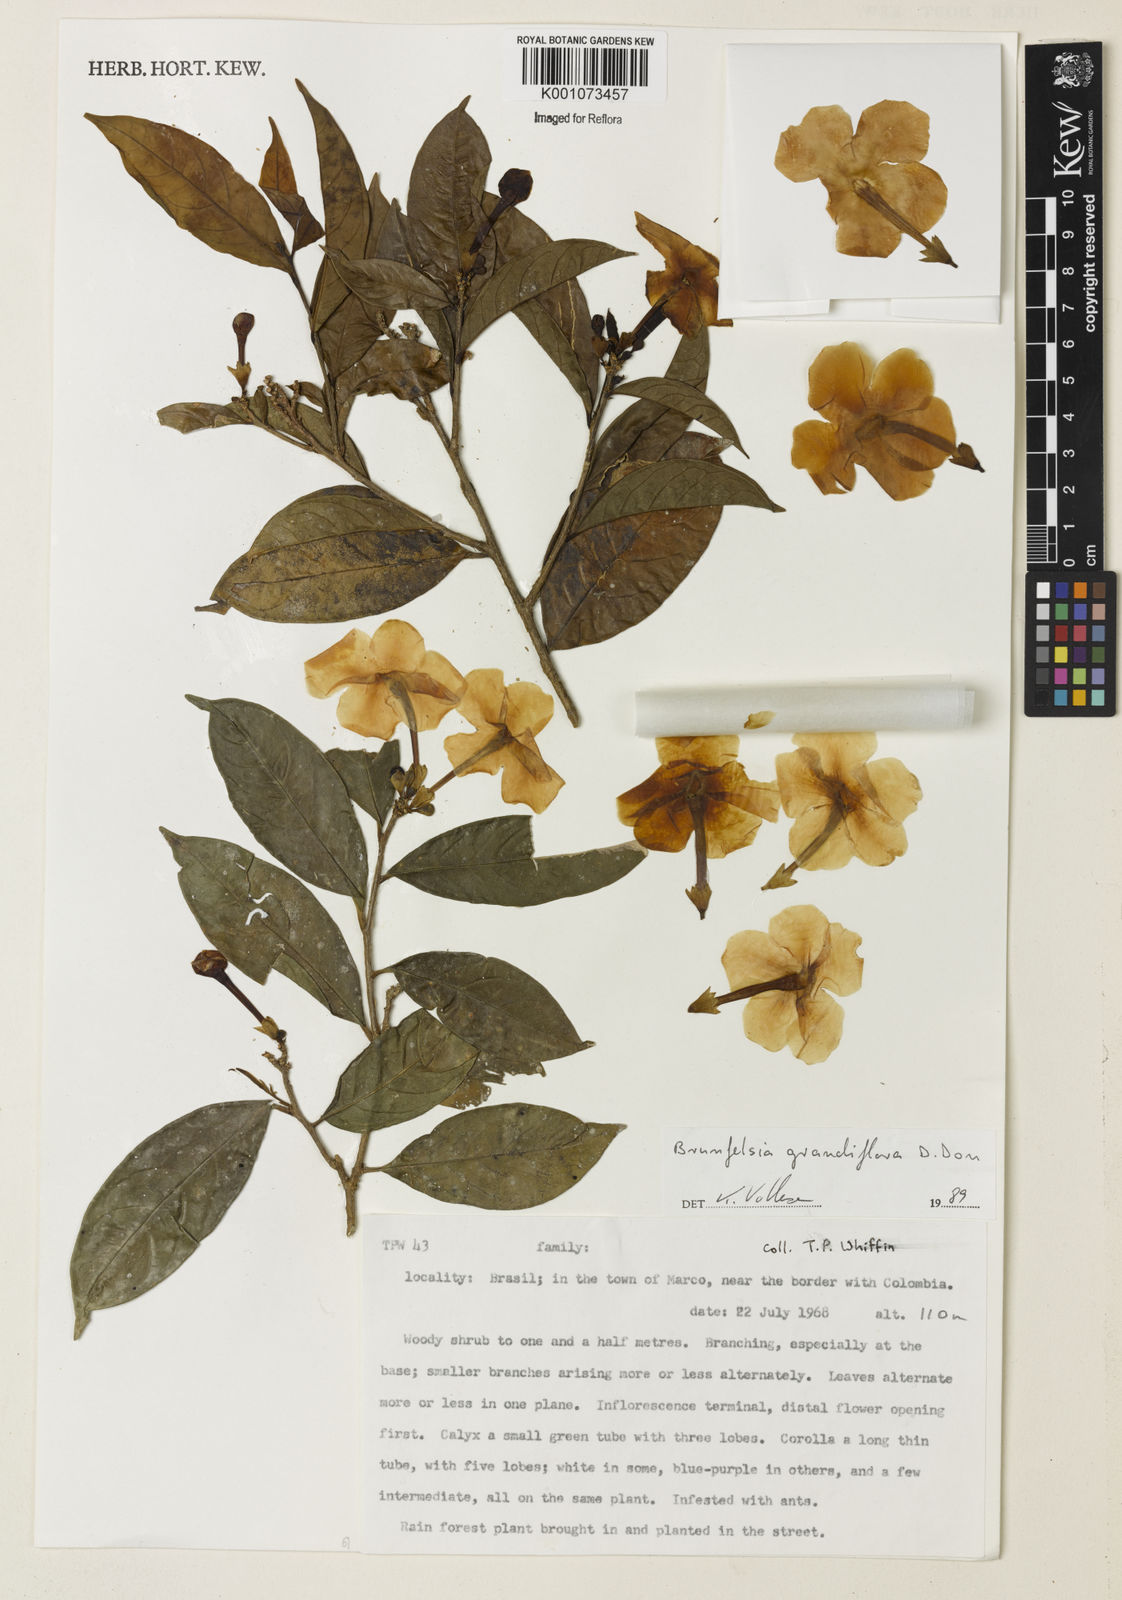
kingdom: Plantae
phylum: Tracheophyta
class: Magnoliopsida
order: Solanales
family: Solanaceae
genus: Brunfelsia
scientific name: Brunfelsia grandiflora
